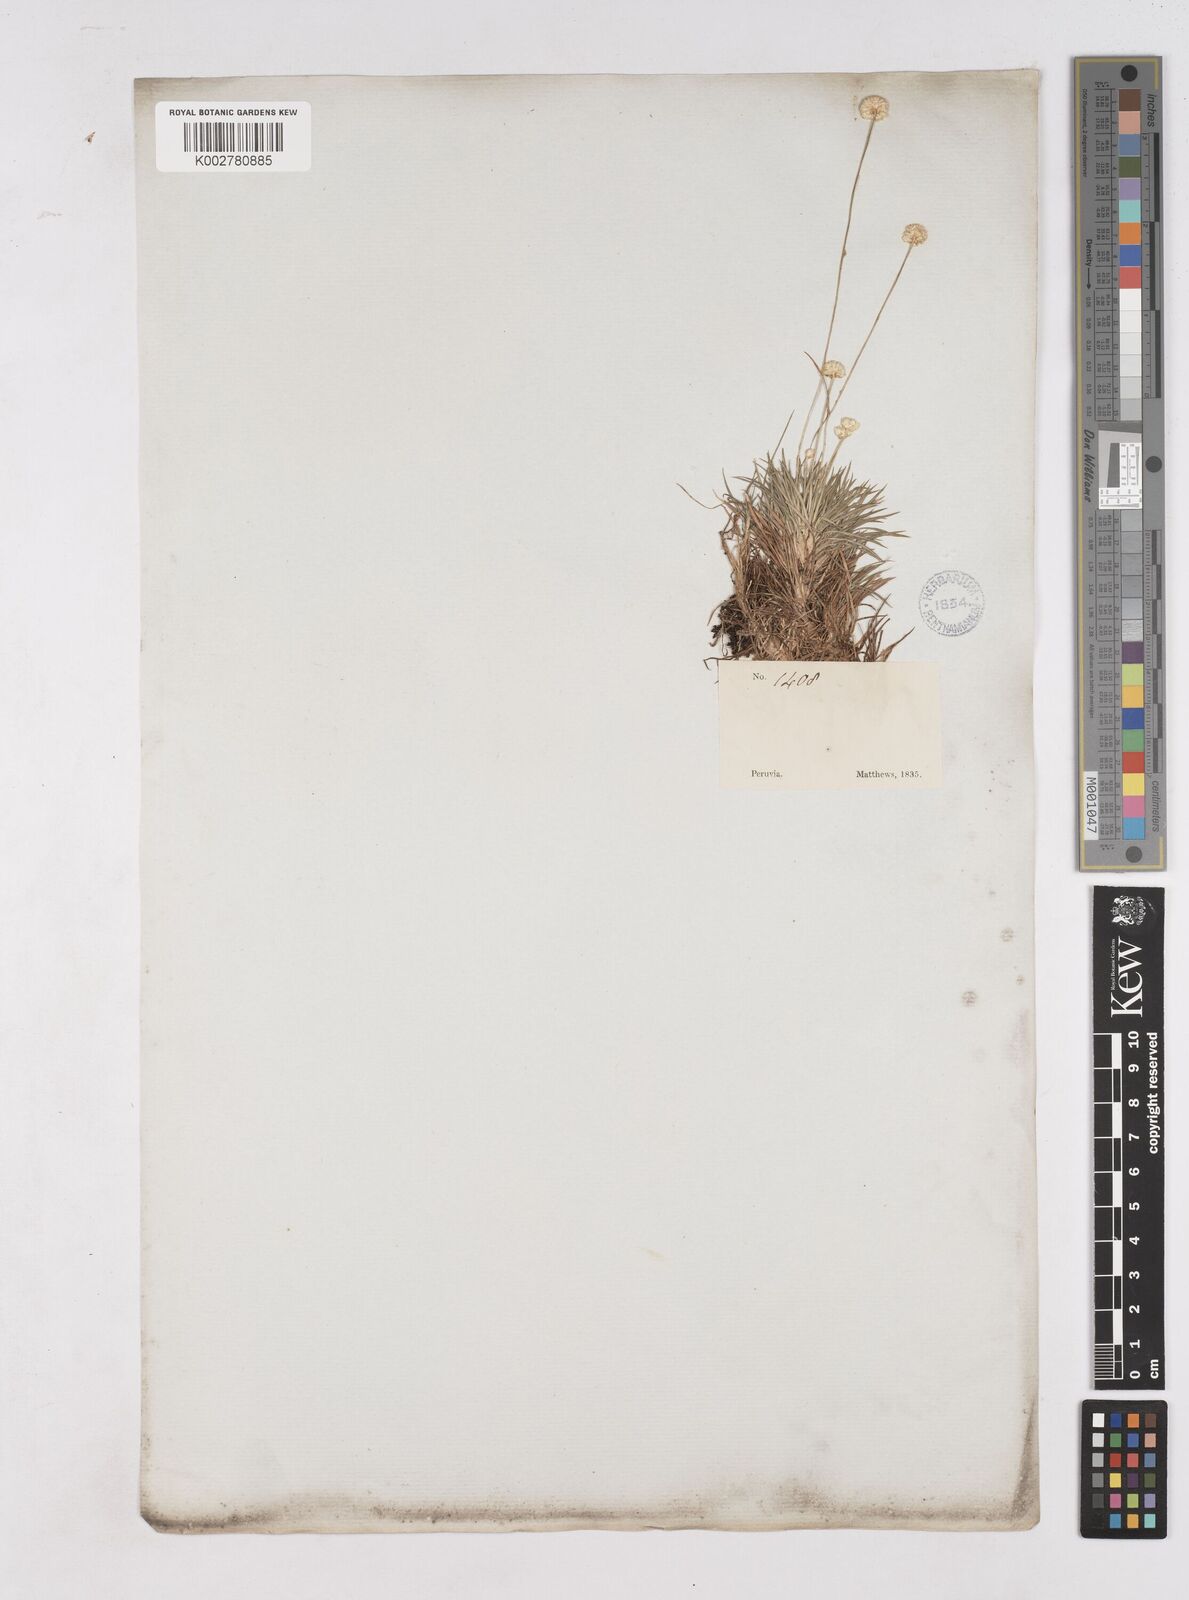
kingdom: Plantae
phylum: Tracheophyta
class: Liliopsida
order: Poales
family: Eriocaulaceae
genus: Paepalanthus
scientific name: Paepalanthus
